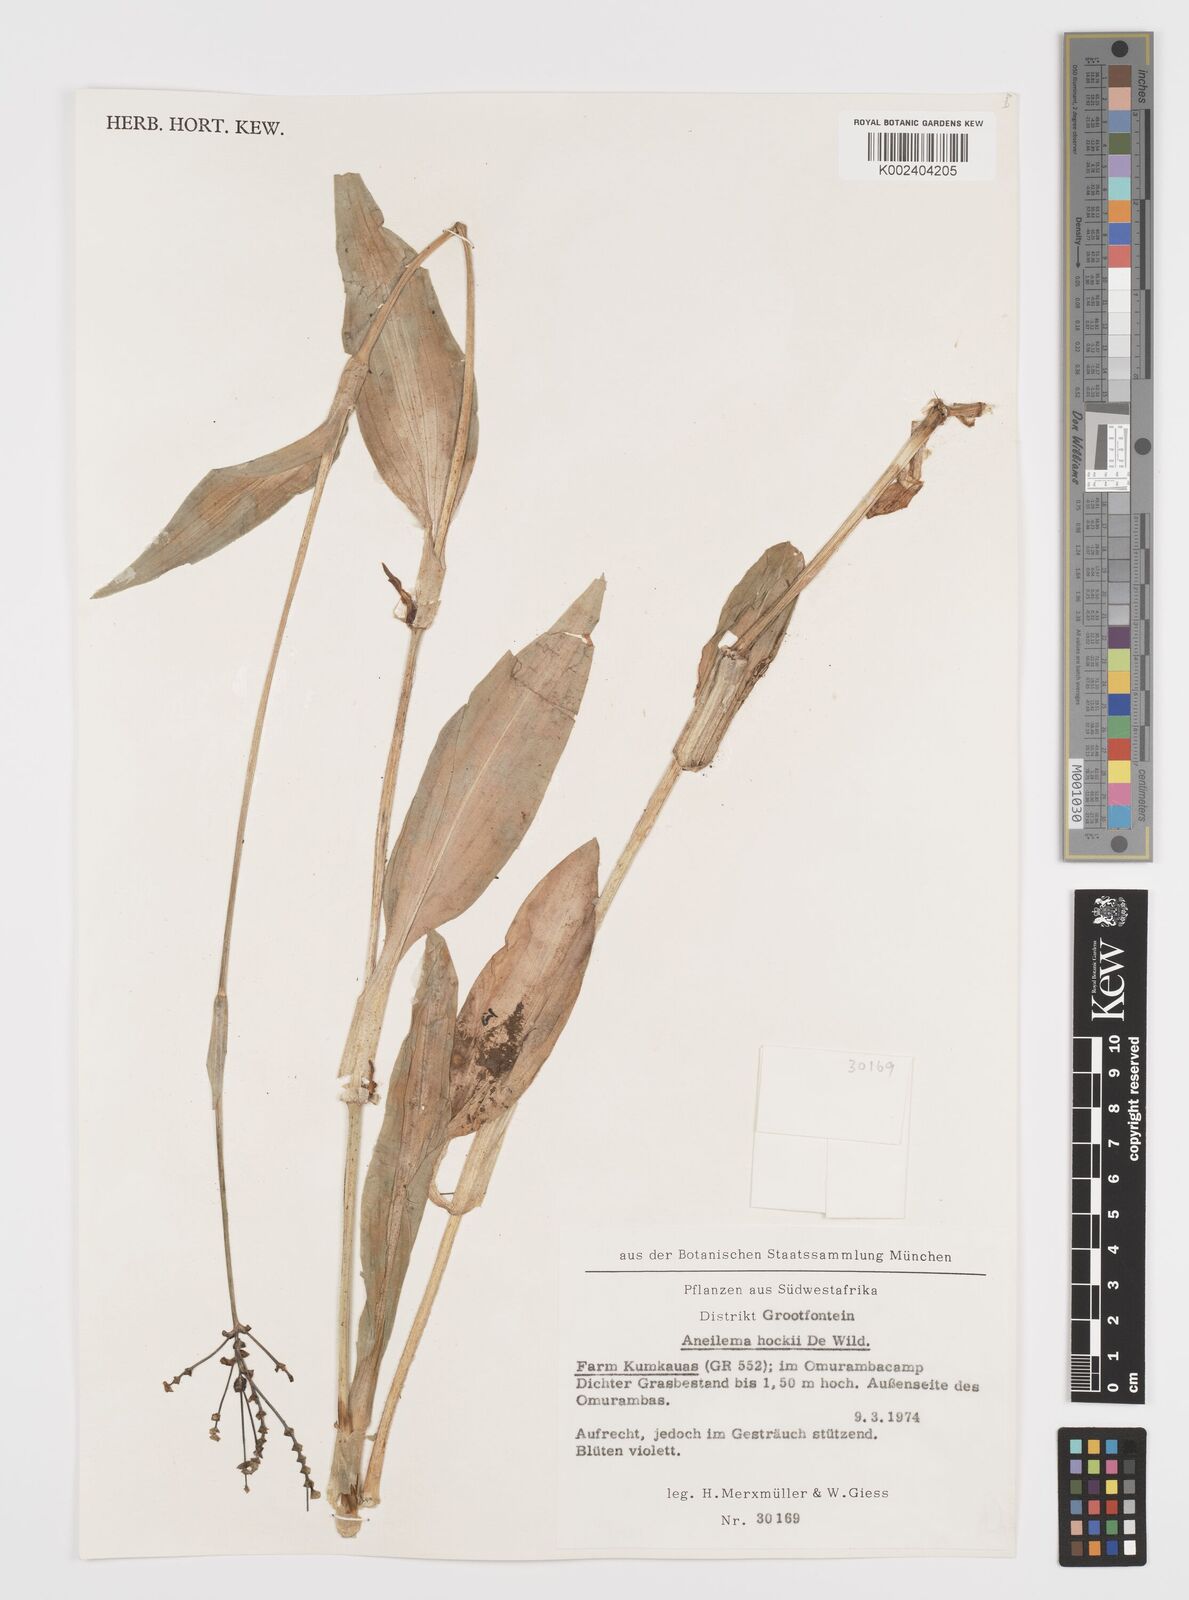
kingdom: Plantae
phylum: Tracheophyta
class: Liliopsida
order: Commelinales
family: Commelinaceae
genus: Aneilema
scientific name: Aneilema hockii
